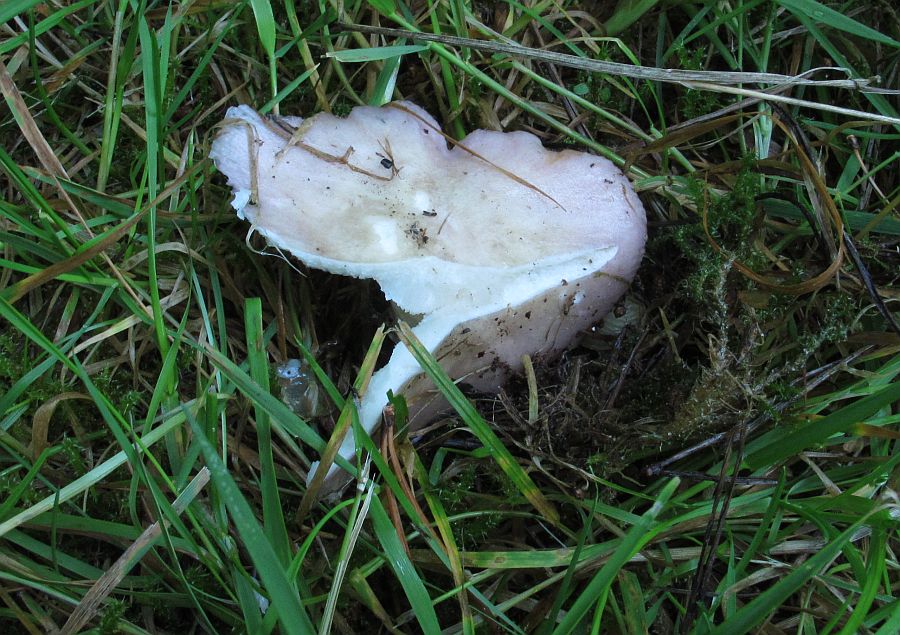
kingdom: Fungi
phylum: Basidiomycota
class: Agaricomycetes
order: Russulales
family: Russulaceae
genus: Russula
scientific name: Russula depallens
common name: falmende skørhat
